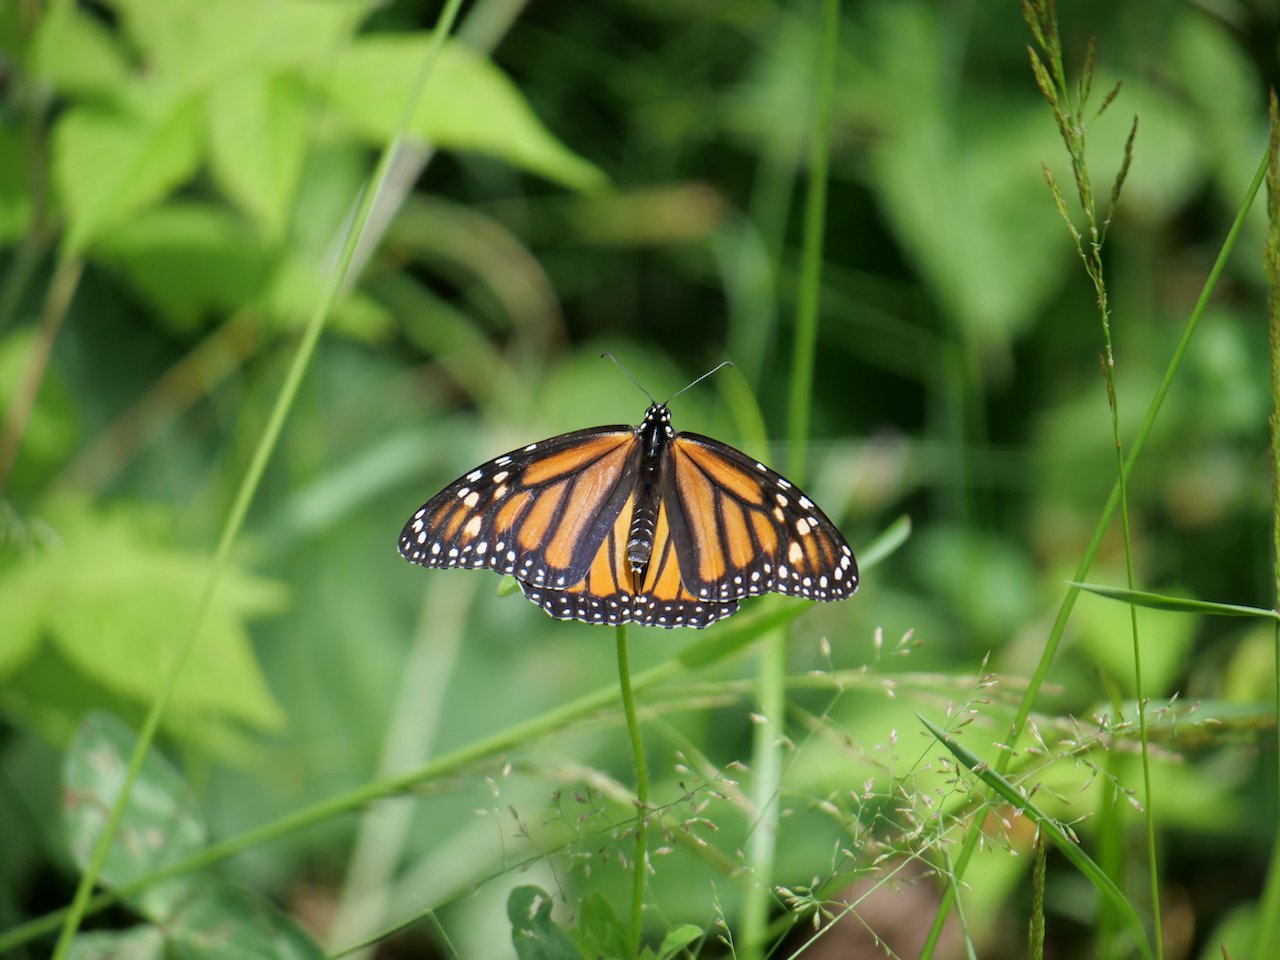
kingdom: Animalia
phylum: Arthropoda
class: Insecta
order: Lepidoptera
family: Nymphalidae
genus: Danaus
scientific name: Danaus plexippus
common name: Monarch
